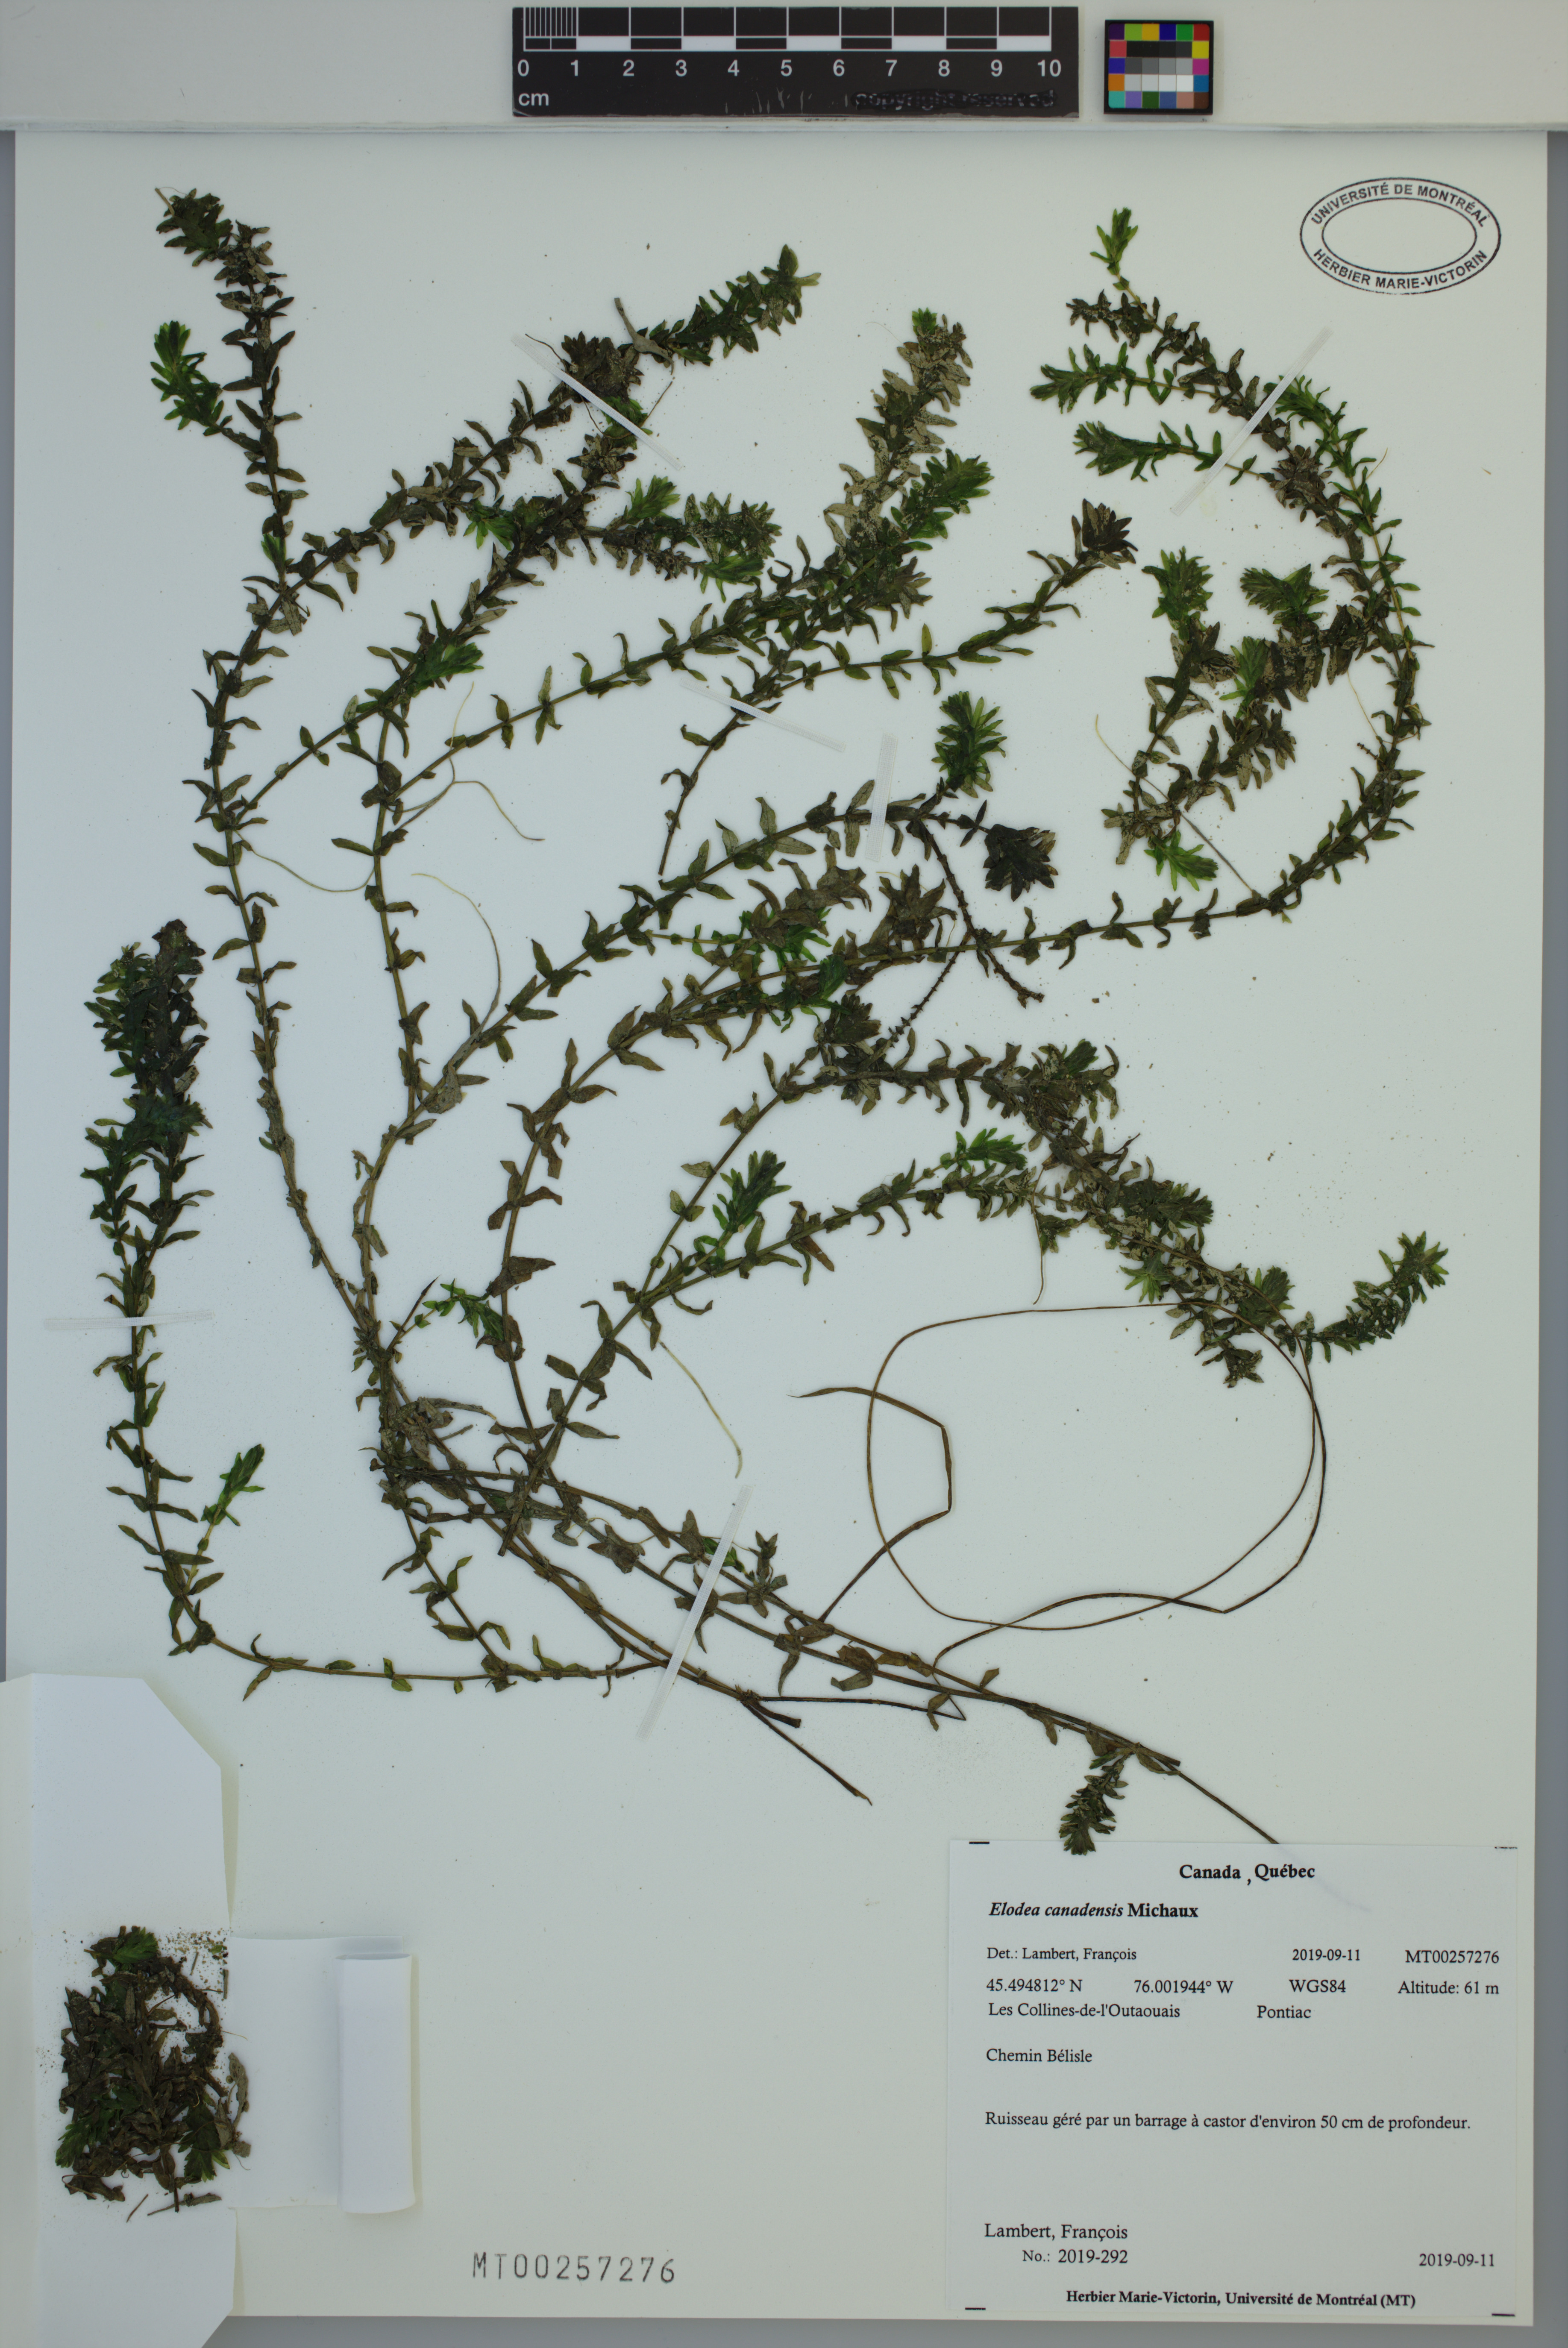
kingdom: Plantae
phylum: Tracheophyta
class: Liliopsida
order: Alismatales
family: Hydrocharitaceae
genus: Elodea
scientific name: Elodea canadensis
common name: Canadian waterweed
